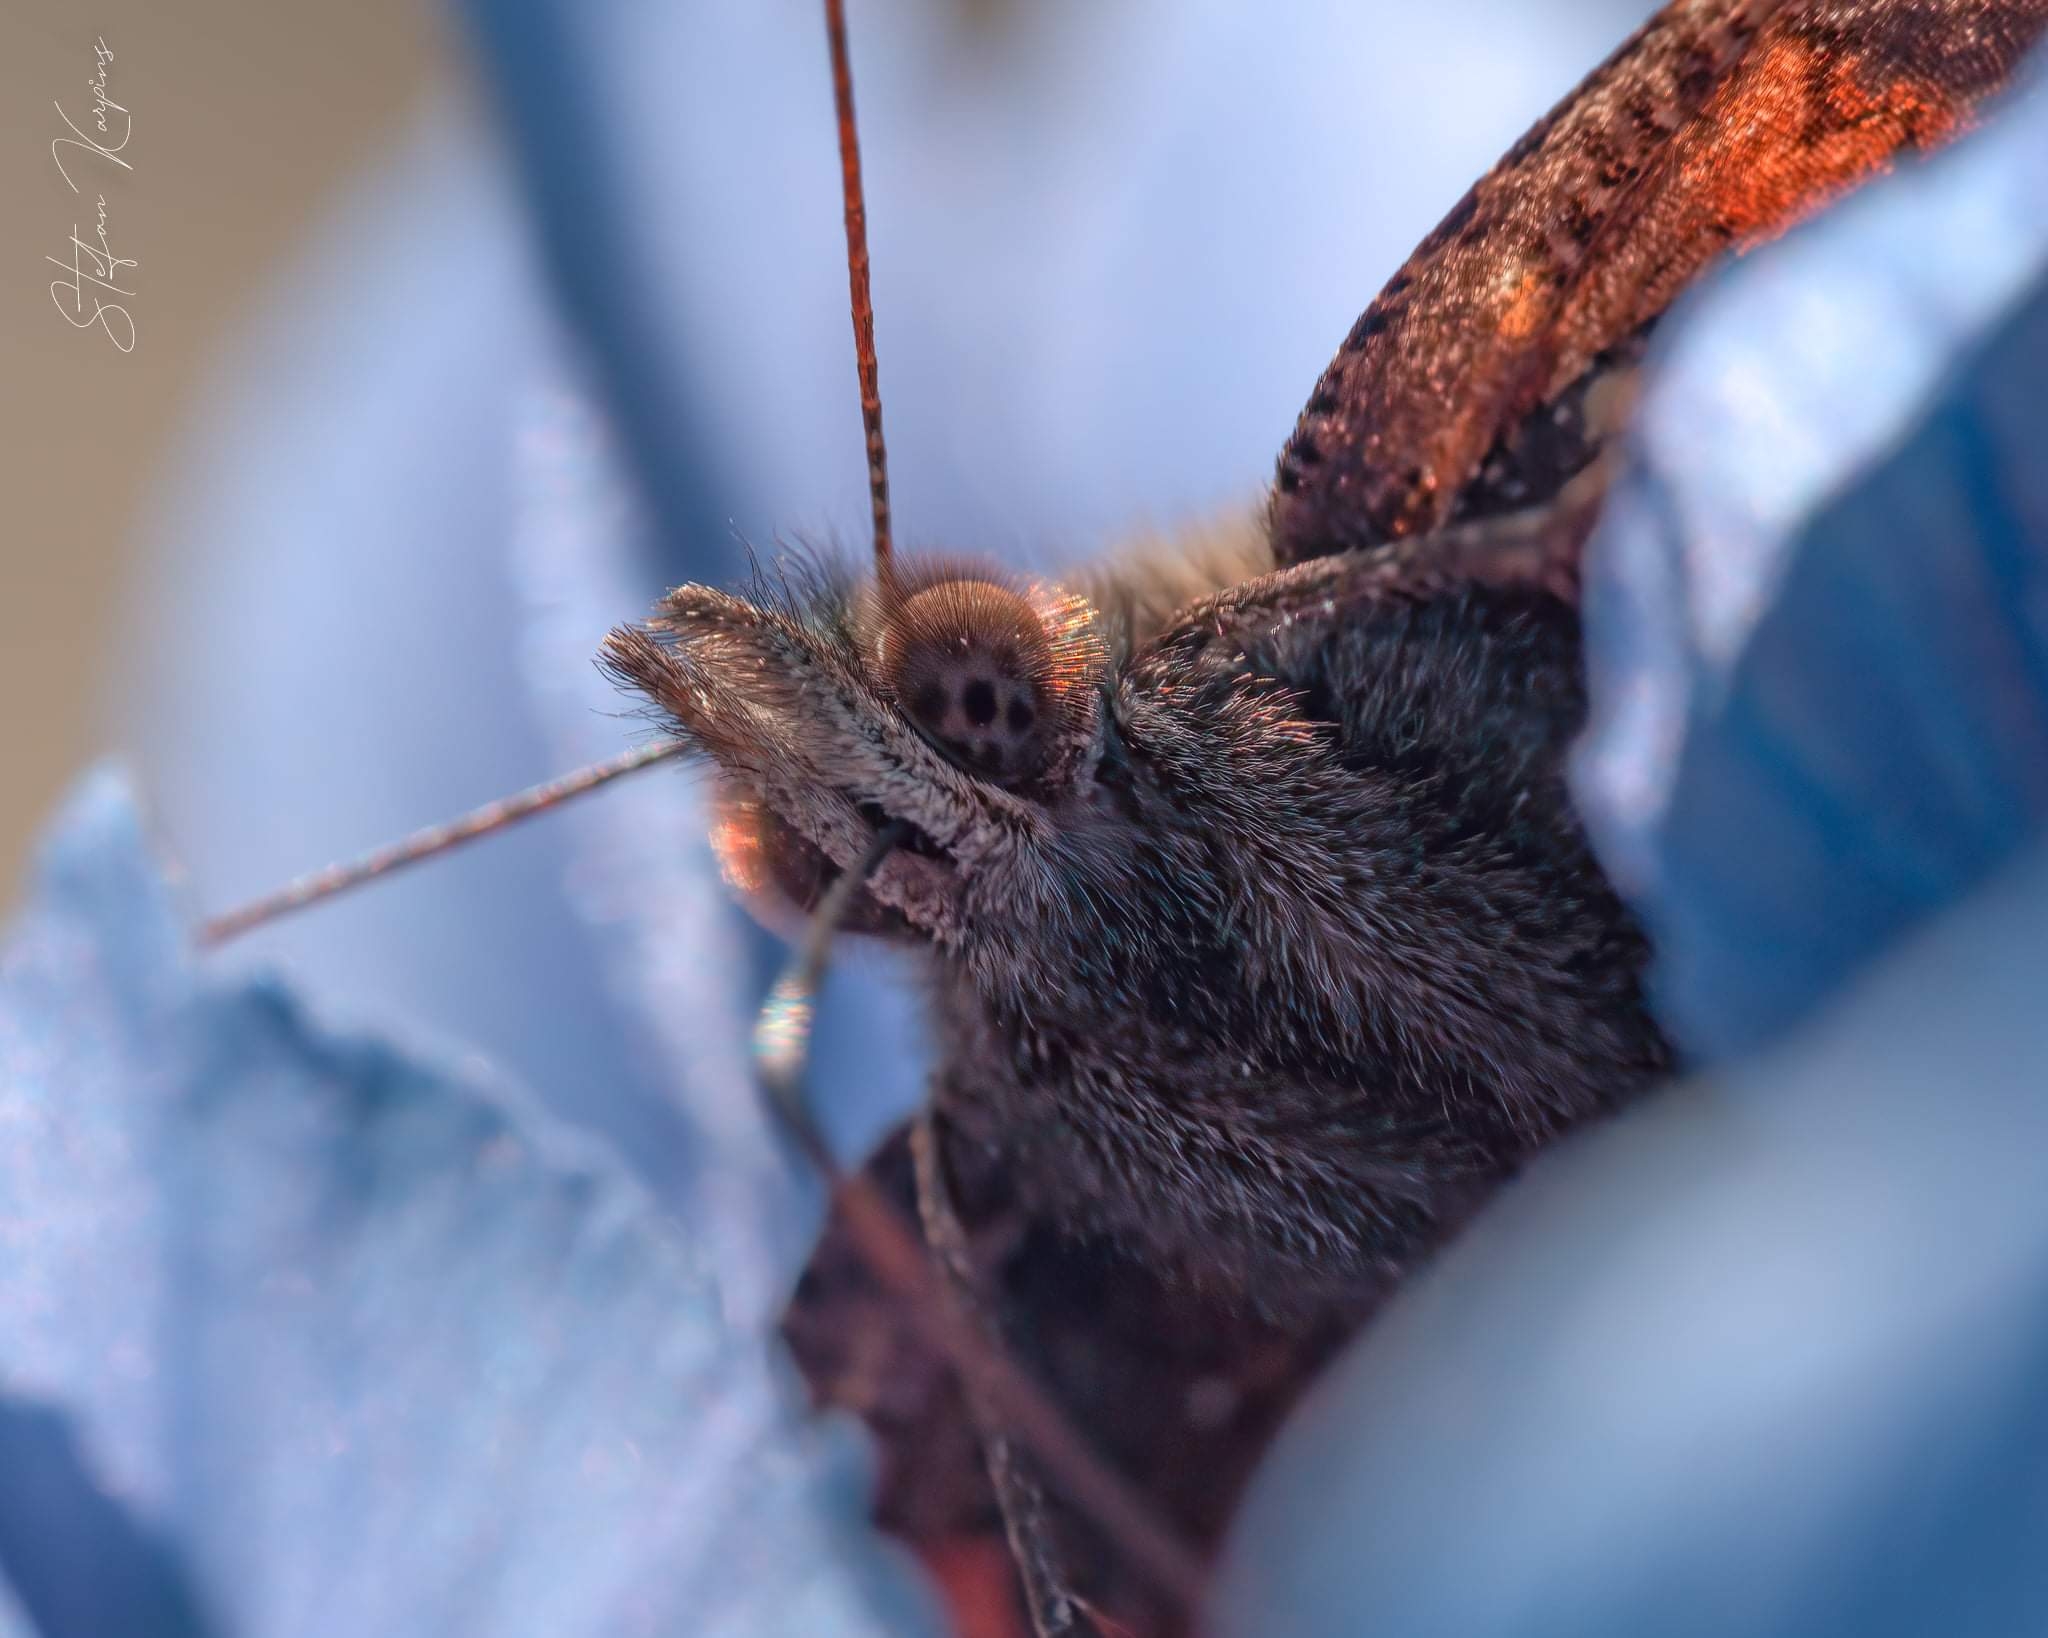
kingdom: Animalia
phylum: Arthropoda
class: Insecta
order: Lepidoptera
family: Nymphalidae
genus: Aglais
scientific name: Aglais urticae
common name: Nældens takvinge
